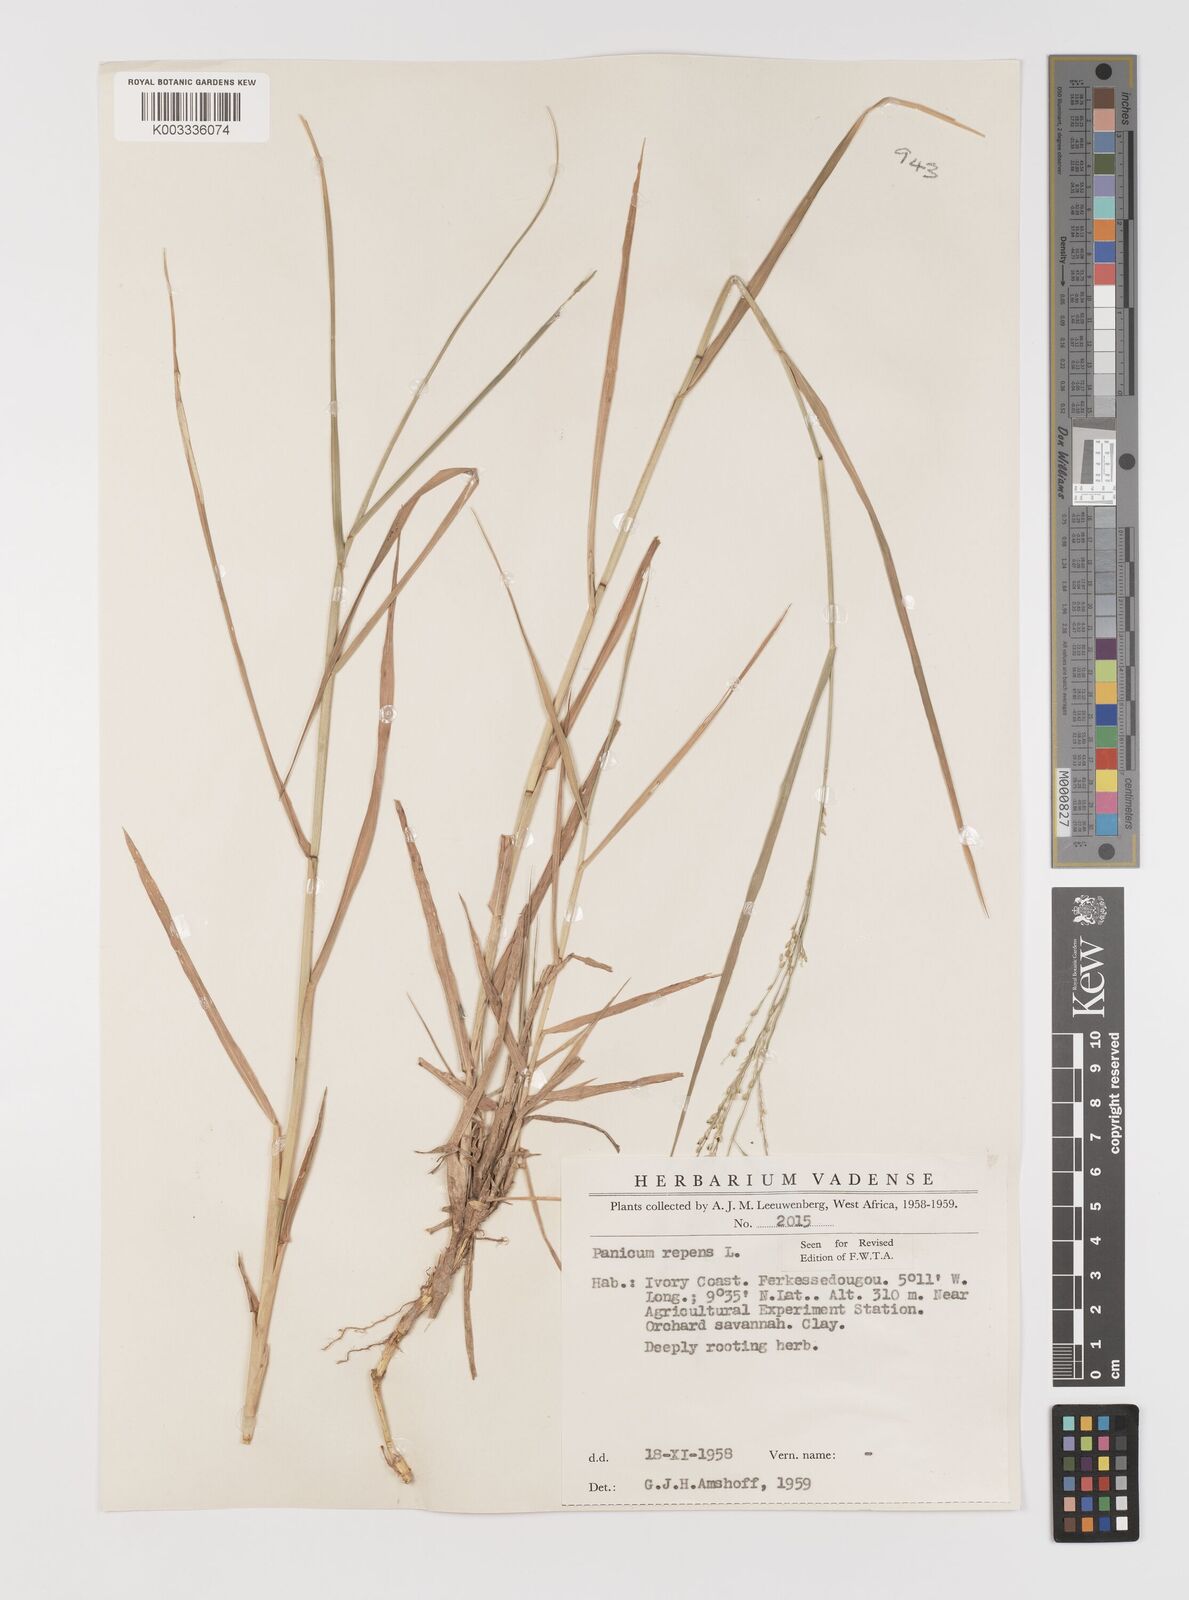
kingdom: Plantae
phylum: Tracheophyta
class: Liliopsida
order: Poales
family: Poaceae
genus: Panicum
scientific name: Panicum repens
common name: Torpedo grass
